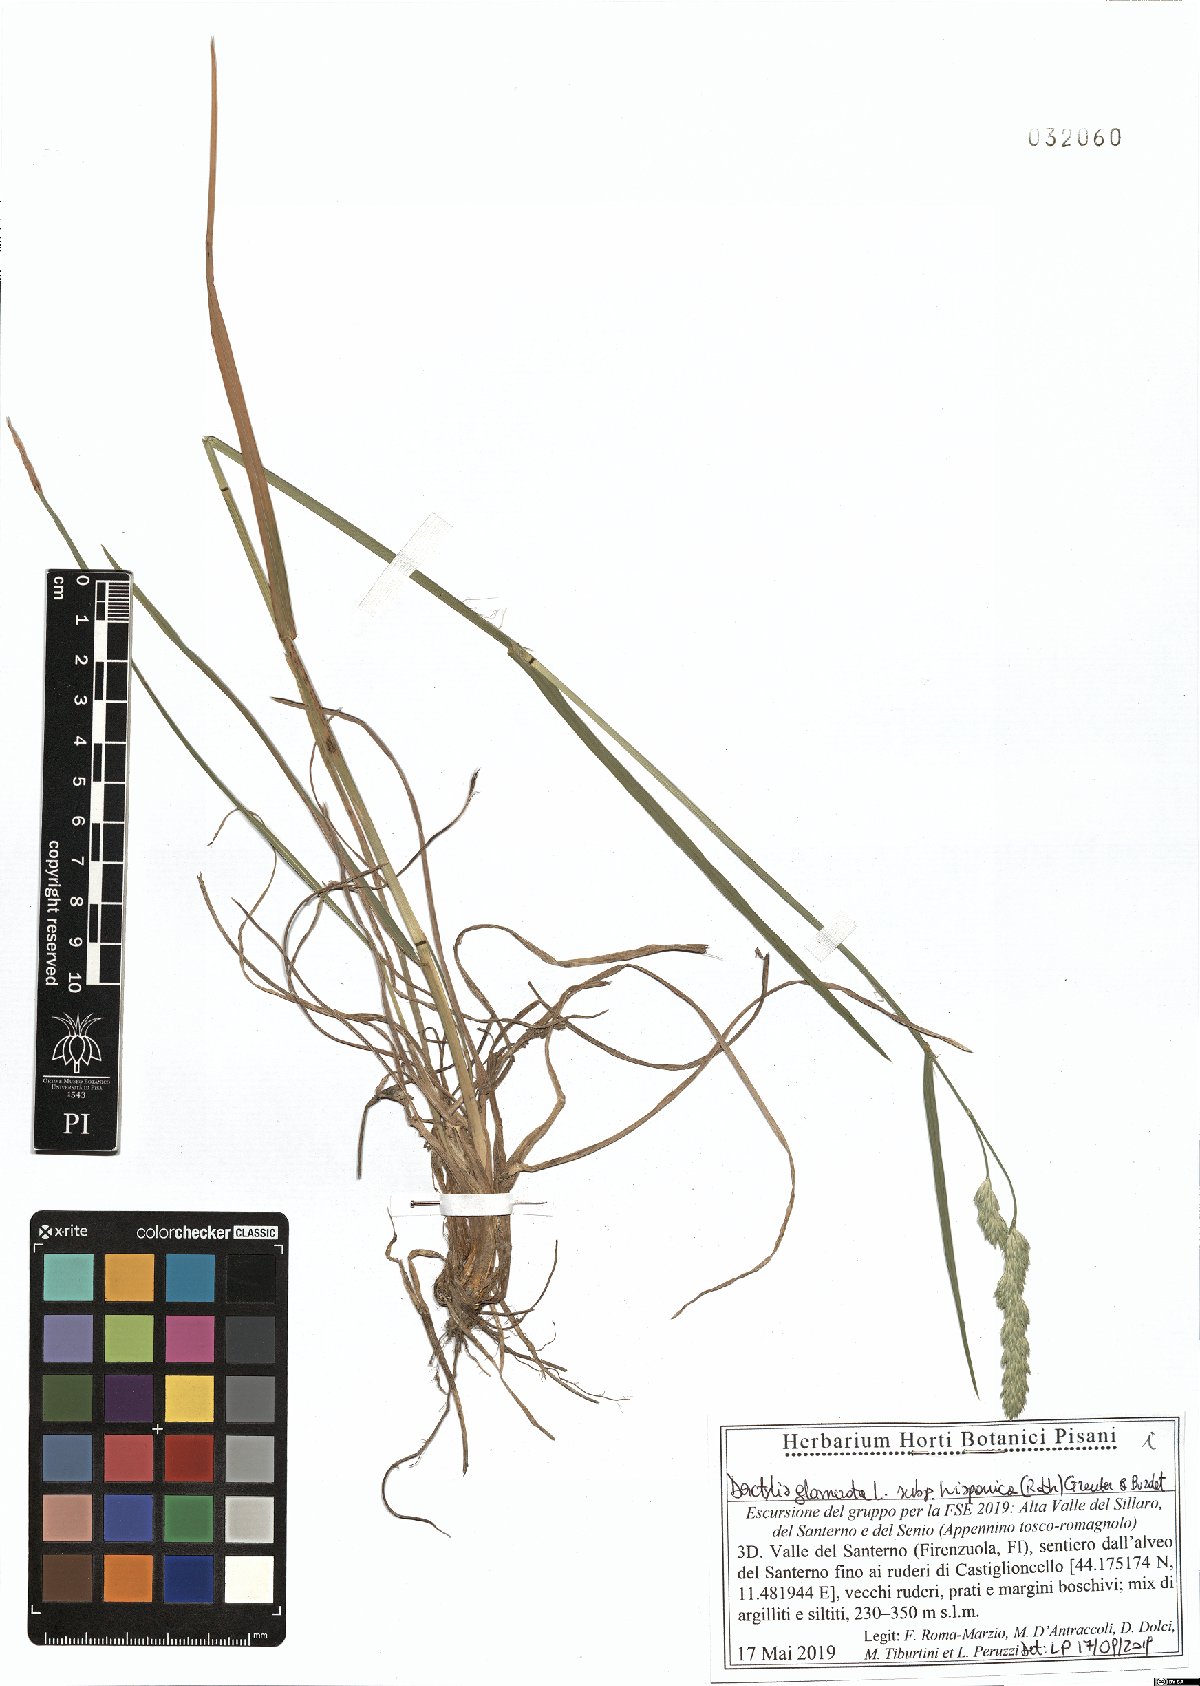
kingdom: Plantae
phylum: Tracheophyta
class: Liliopsida
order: Poales
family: Poaceae
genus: Dactylis
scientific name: Dactylis glomerata
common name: Orchardgrass
